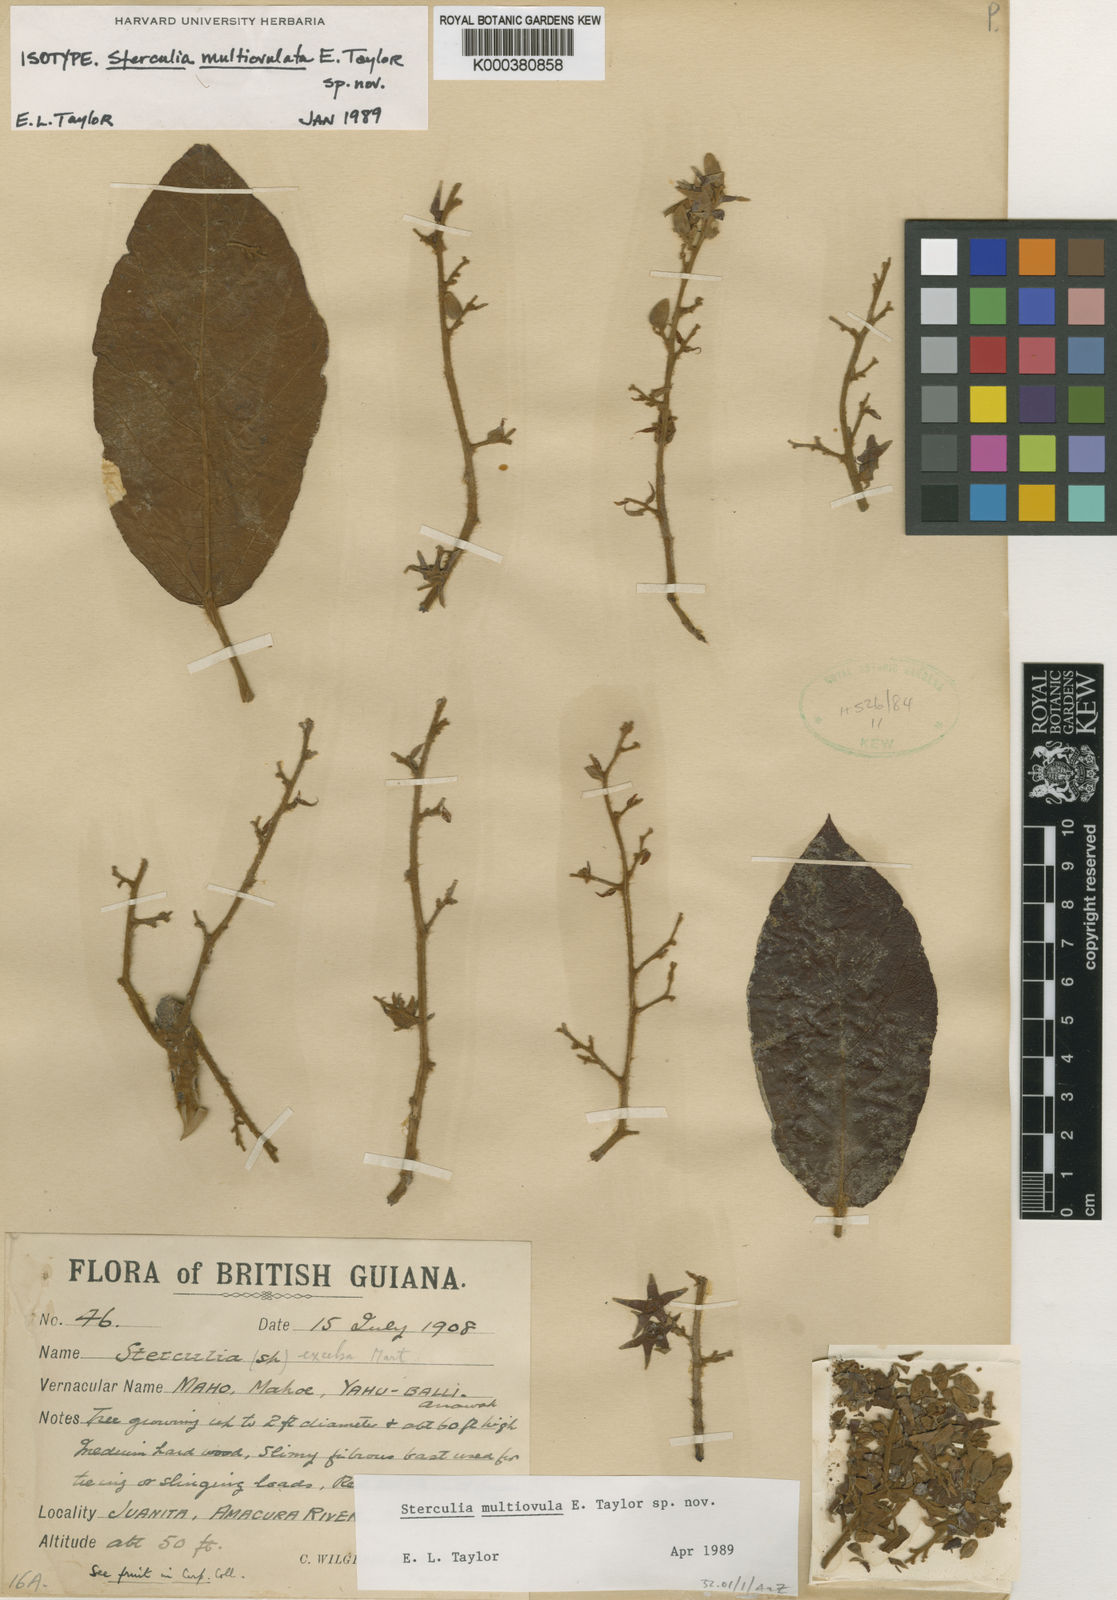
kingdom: Plantae
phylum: Tracheophyta
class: Magnoliopsida
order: Malvales
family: Malvaceae
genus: Sterculia
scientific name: Sterculia
